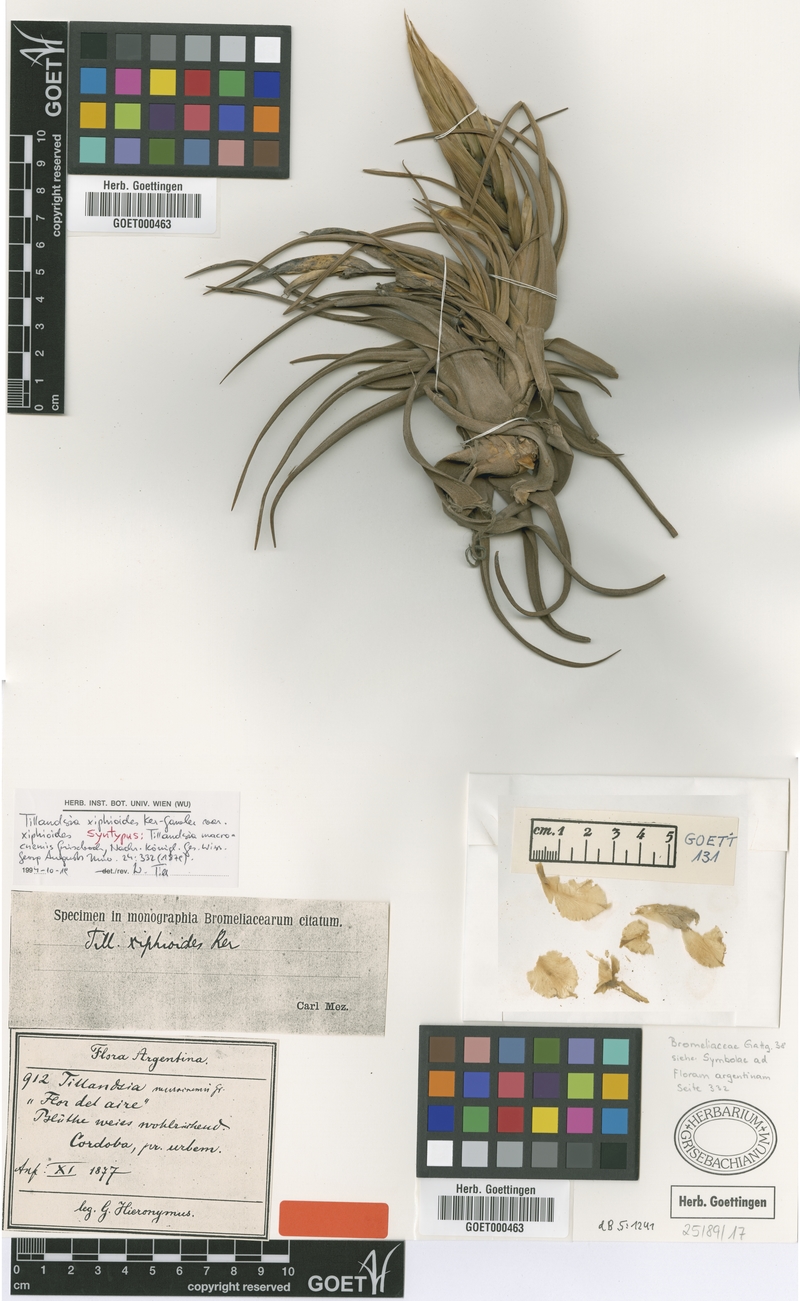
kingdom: Plantae
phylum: Tracheophyta
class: Liliopsida
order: Poales
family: Bromeliaceae
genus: Tillandsia
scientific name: Tillandsia xiphioides
